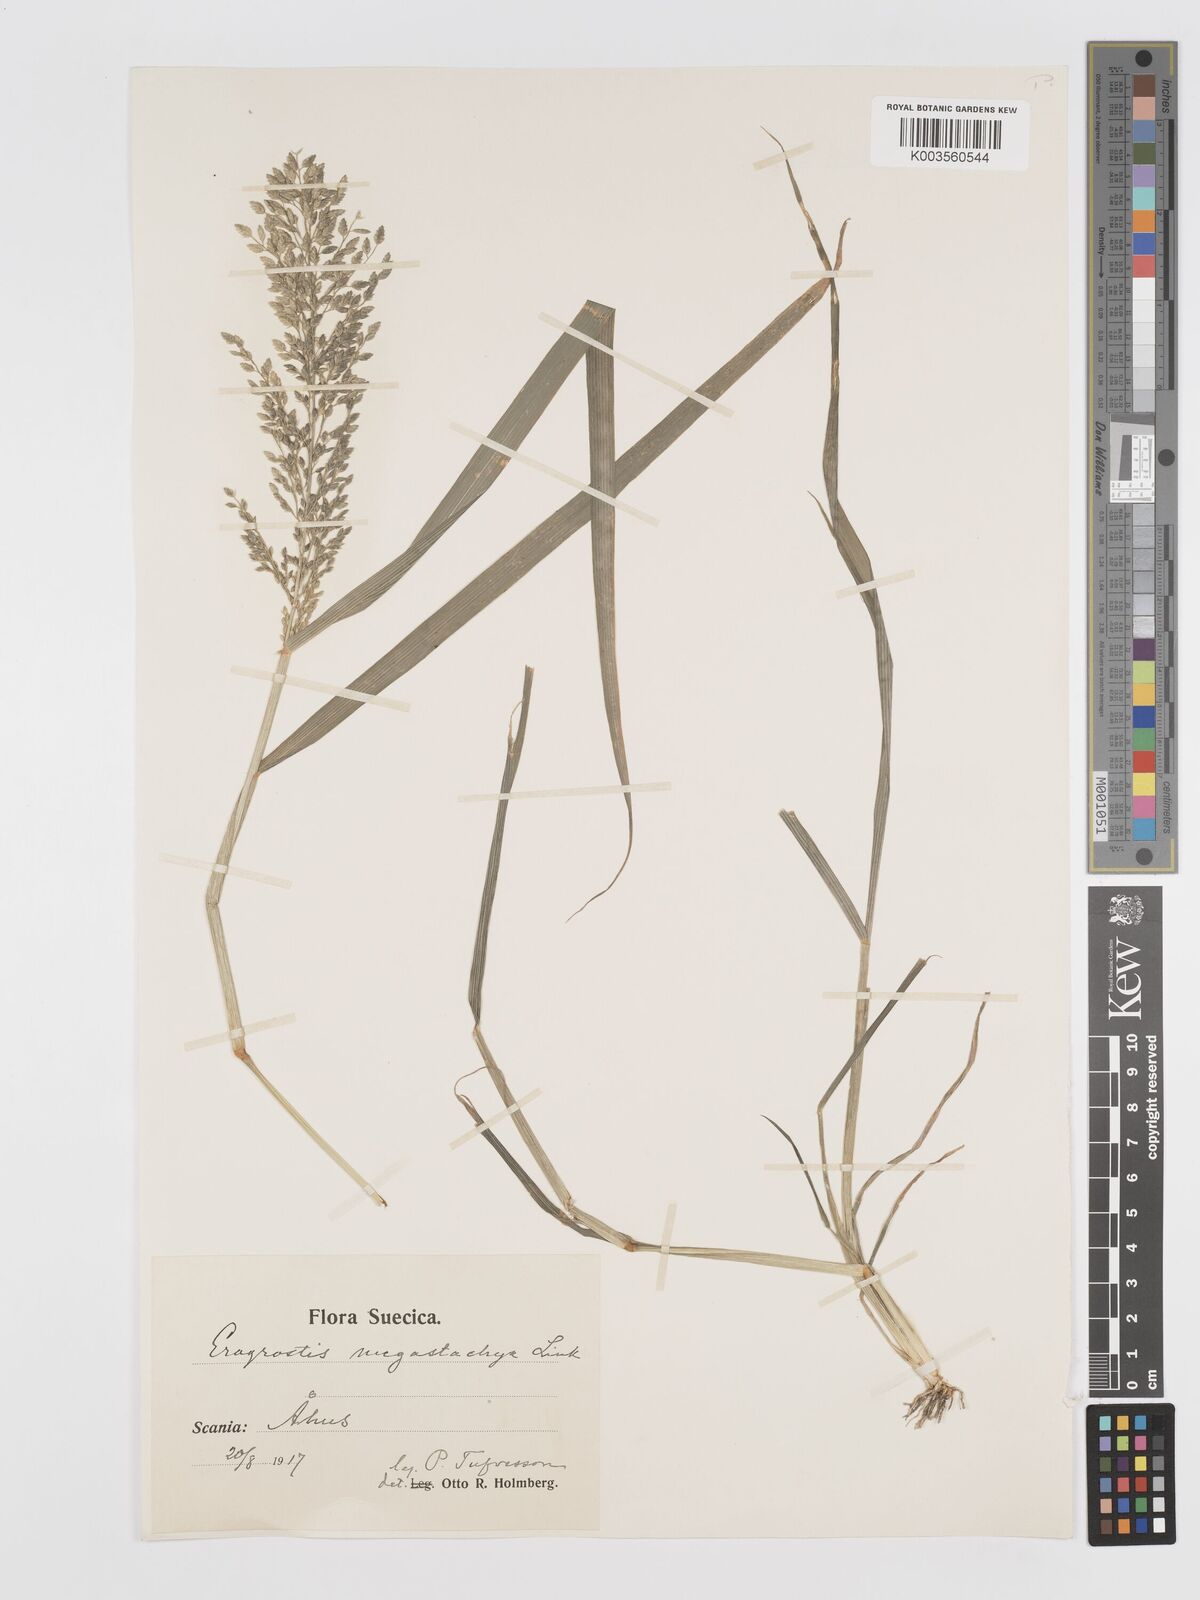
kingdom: Plantae
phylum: Tracheophyta
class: Liliopsida
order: Poales
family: Poaceae
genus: Eragrostis
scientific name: Eragrostis cilianensis
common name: Stinkgrass
